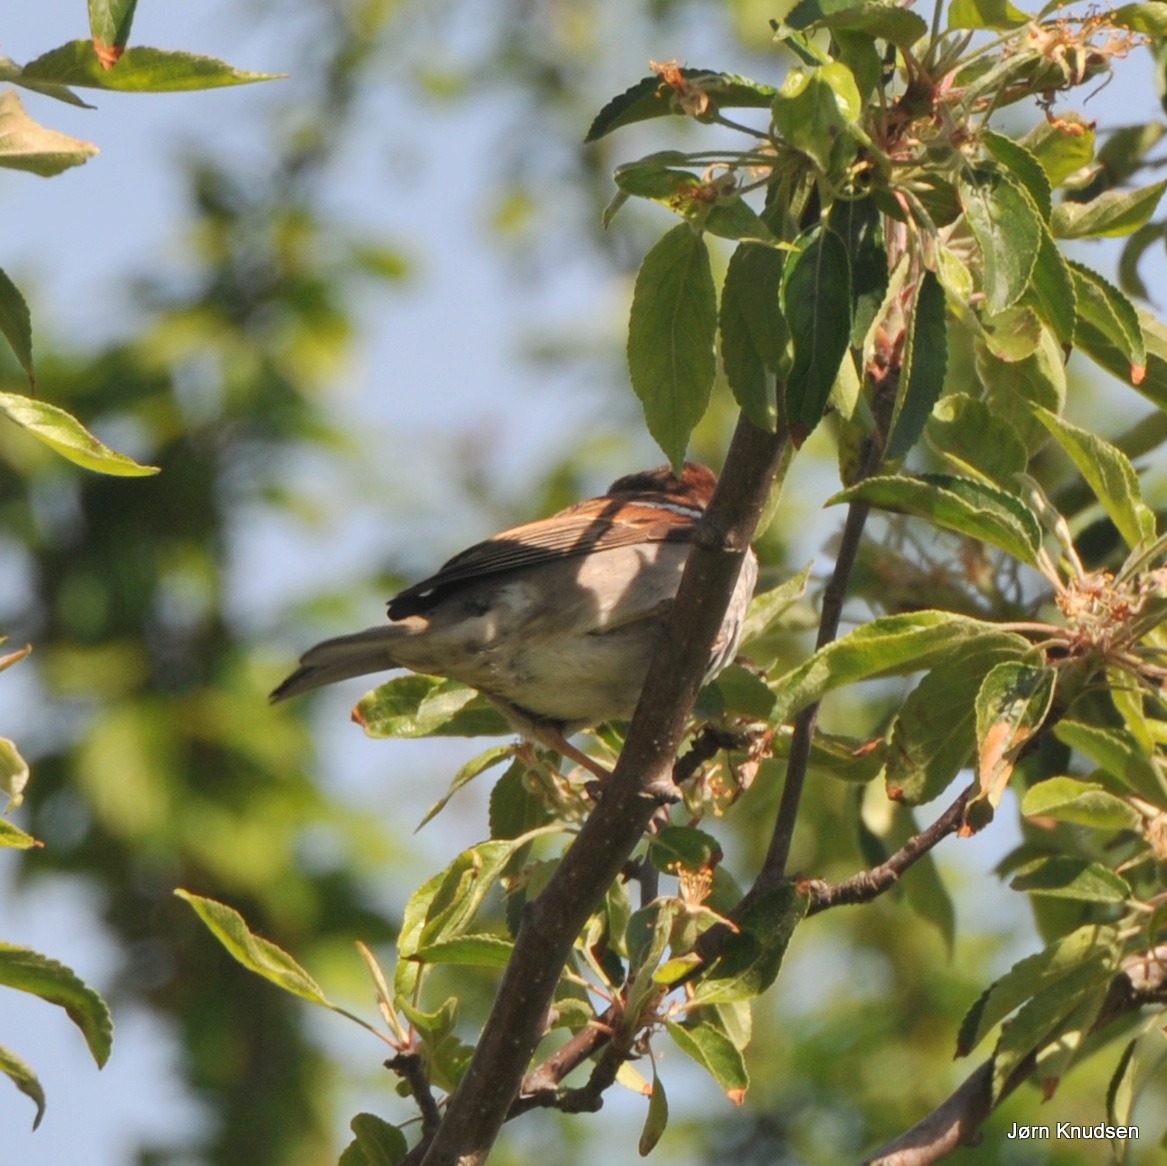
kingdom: Animalia
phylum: Chordata
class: Aves
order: Passeriformes
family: Passeridae
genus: Passer
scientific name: Passer domesticus
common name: Gråspurv
